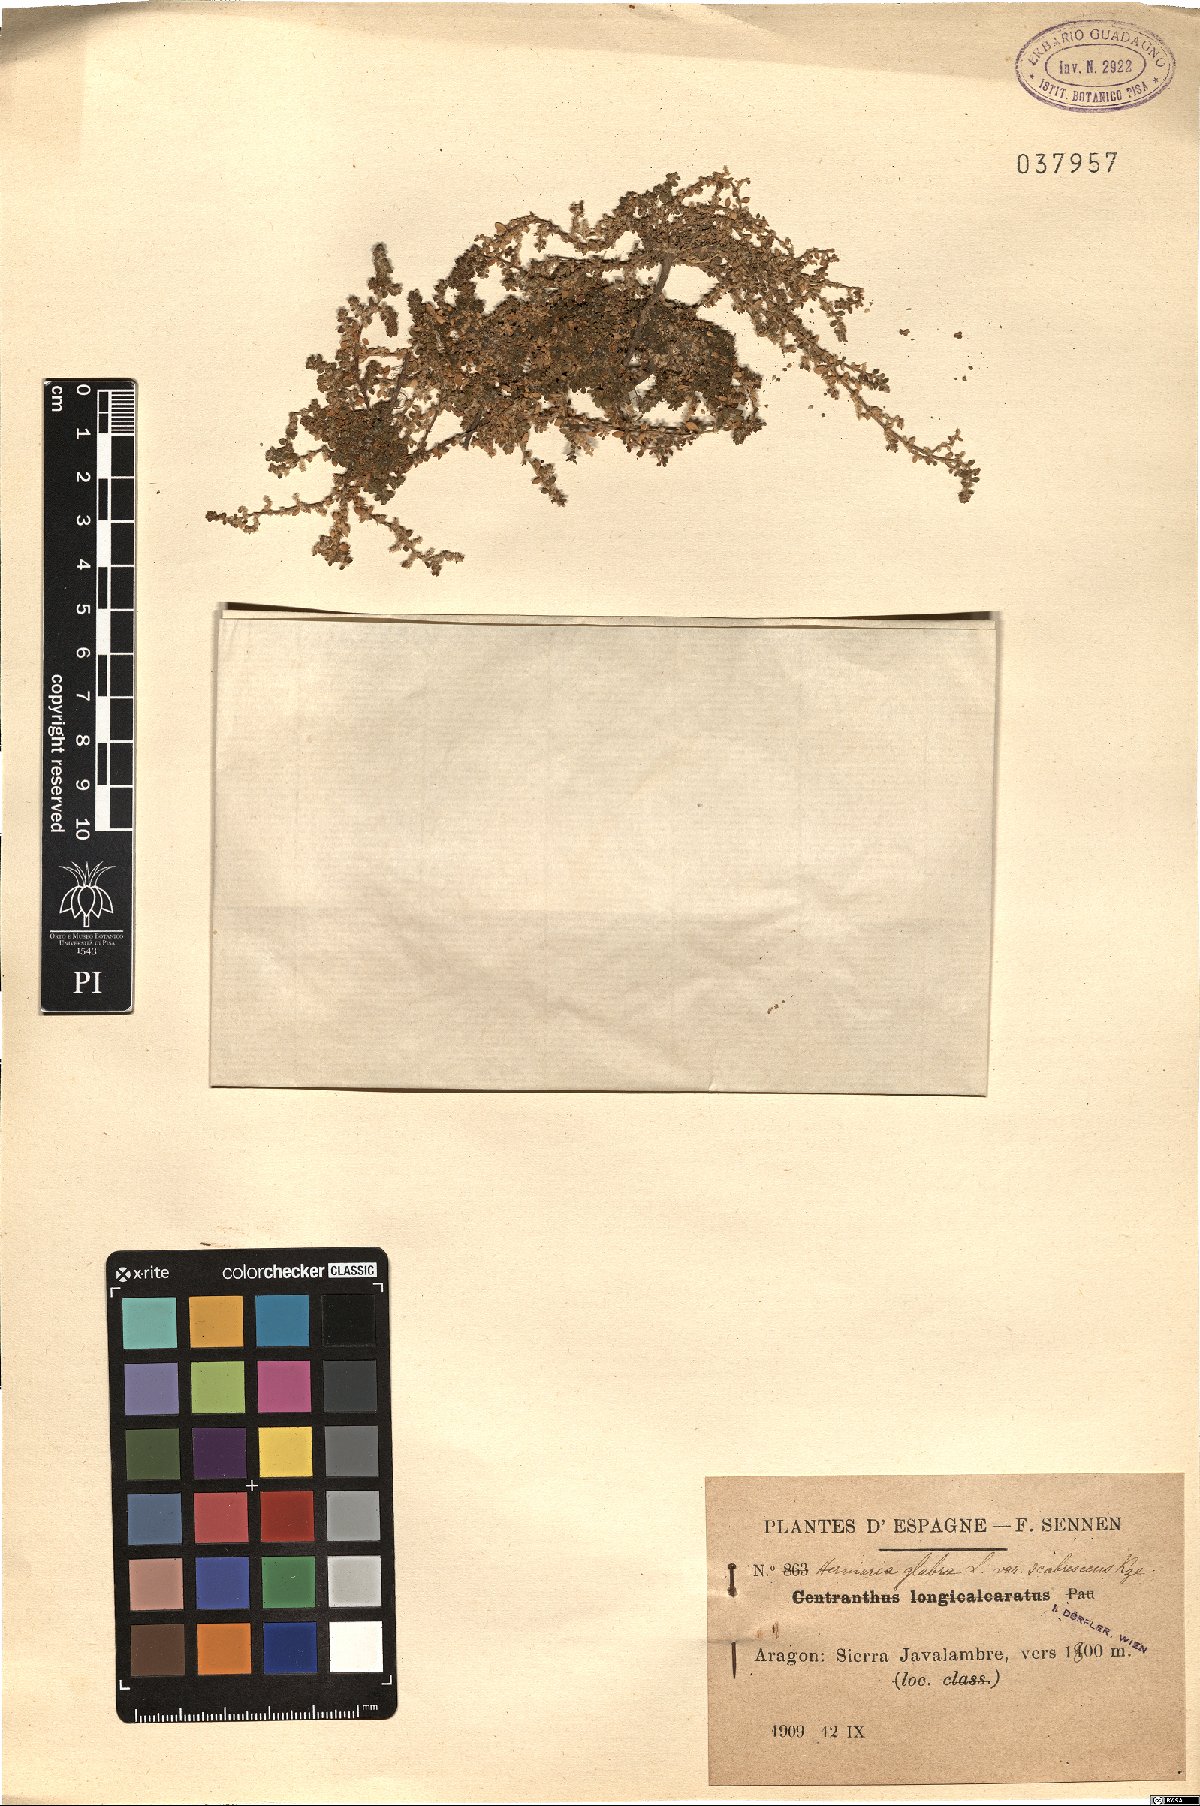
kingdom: Plantae
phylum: Tracheophyta
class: Magnoliopsida
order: Caryophyllales
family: Caryophyllaceae
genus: Herniaria
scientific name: Herniaria glabra
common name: Smooth rupturewort
